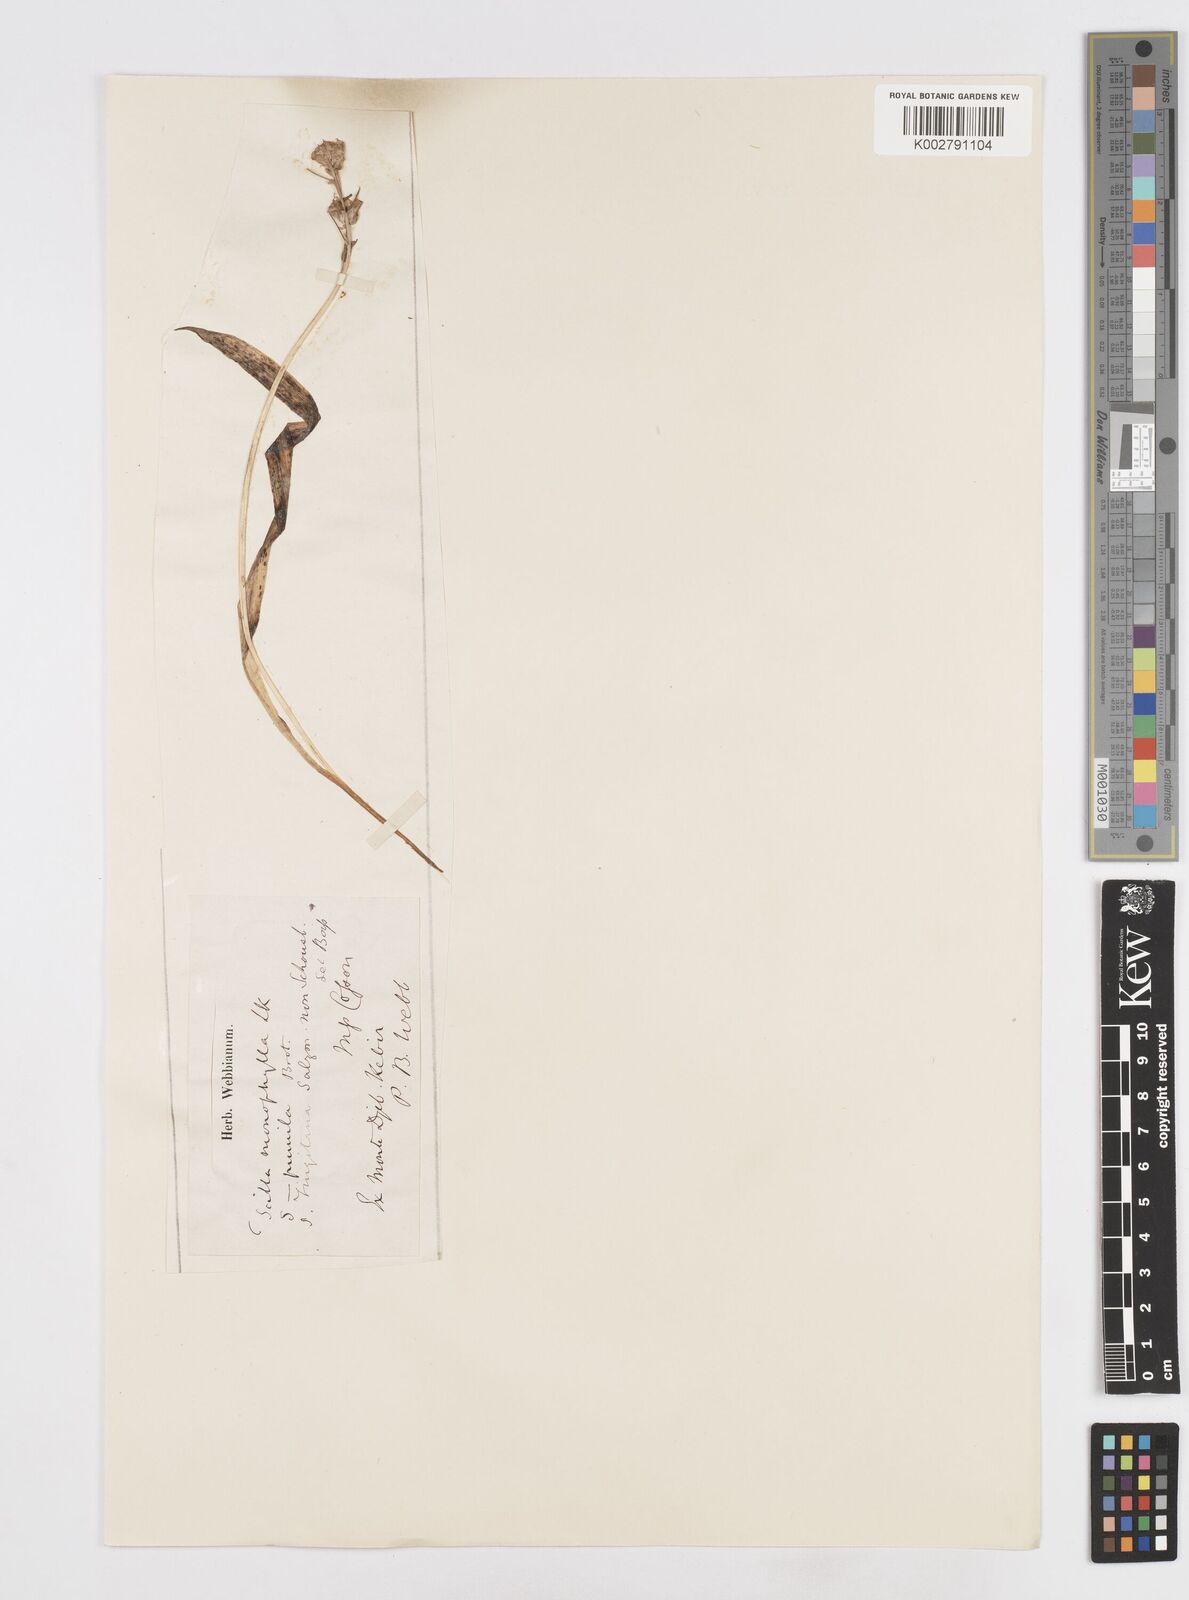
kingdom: Plantae
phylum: Tracheophyta
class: Liliopsida
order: Asparagales
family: Asparagaceae
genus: Scilla
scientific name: Scilla monophyllos
